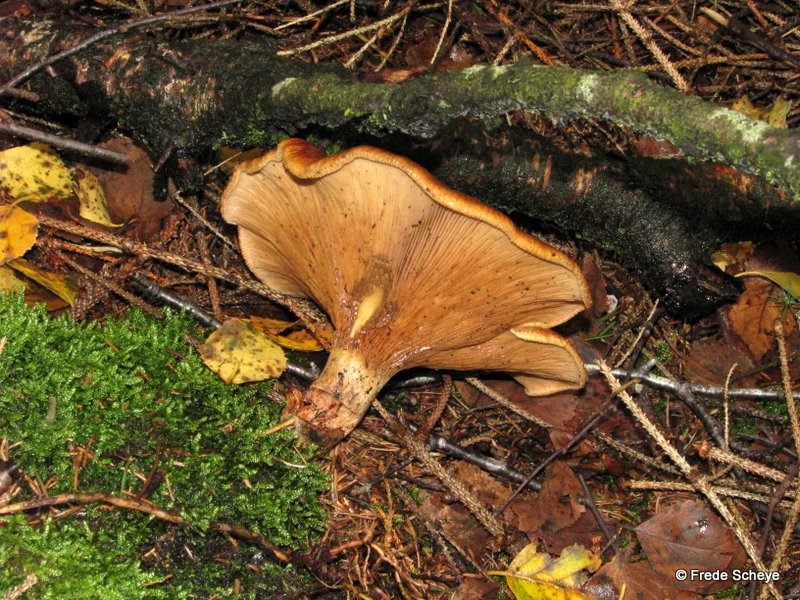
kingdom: Fungi
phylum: Basidiomycota
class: Agaricomycetes
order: Boletales
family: Paxillaceae
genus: Paxillus
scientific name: Paxillus involutus
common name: almindelig netbladhat
